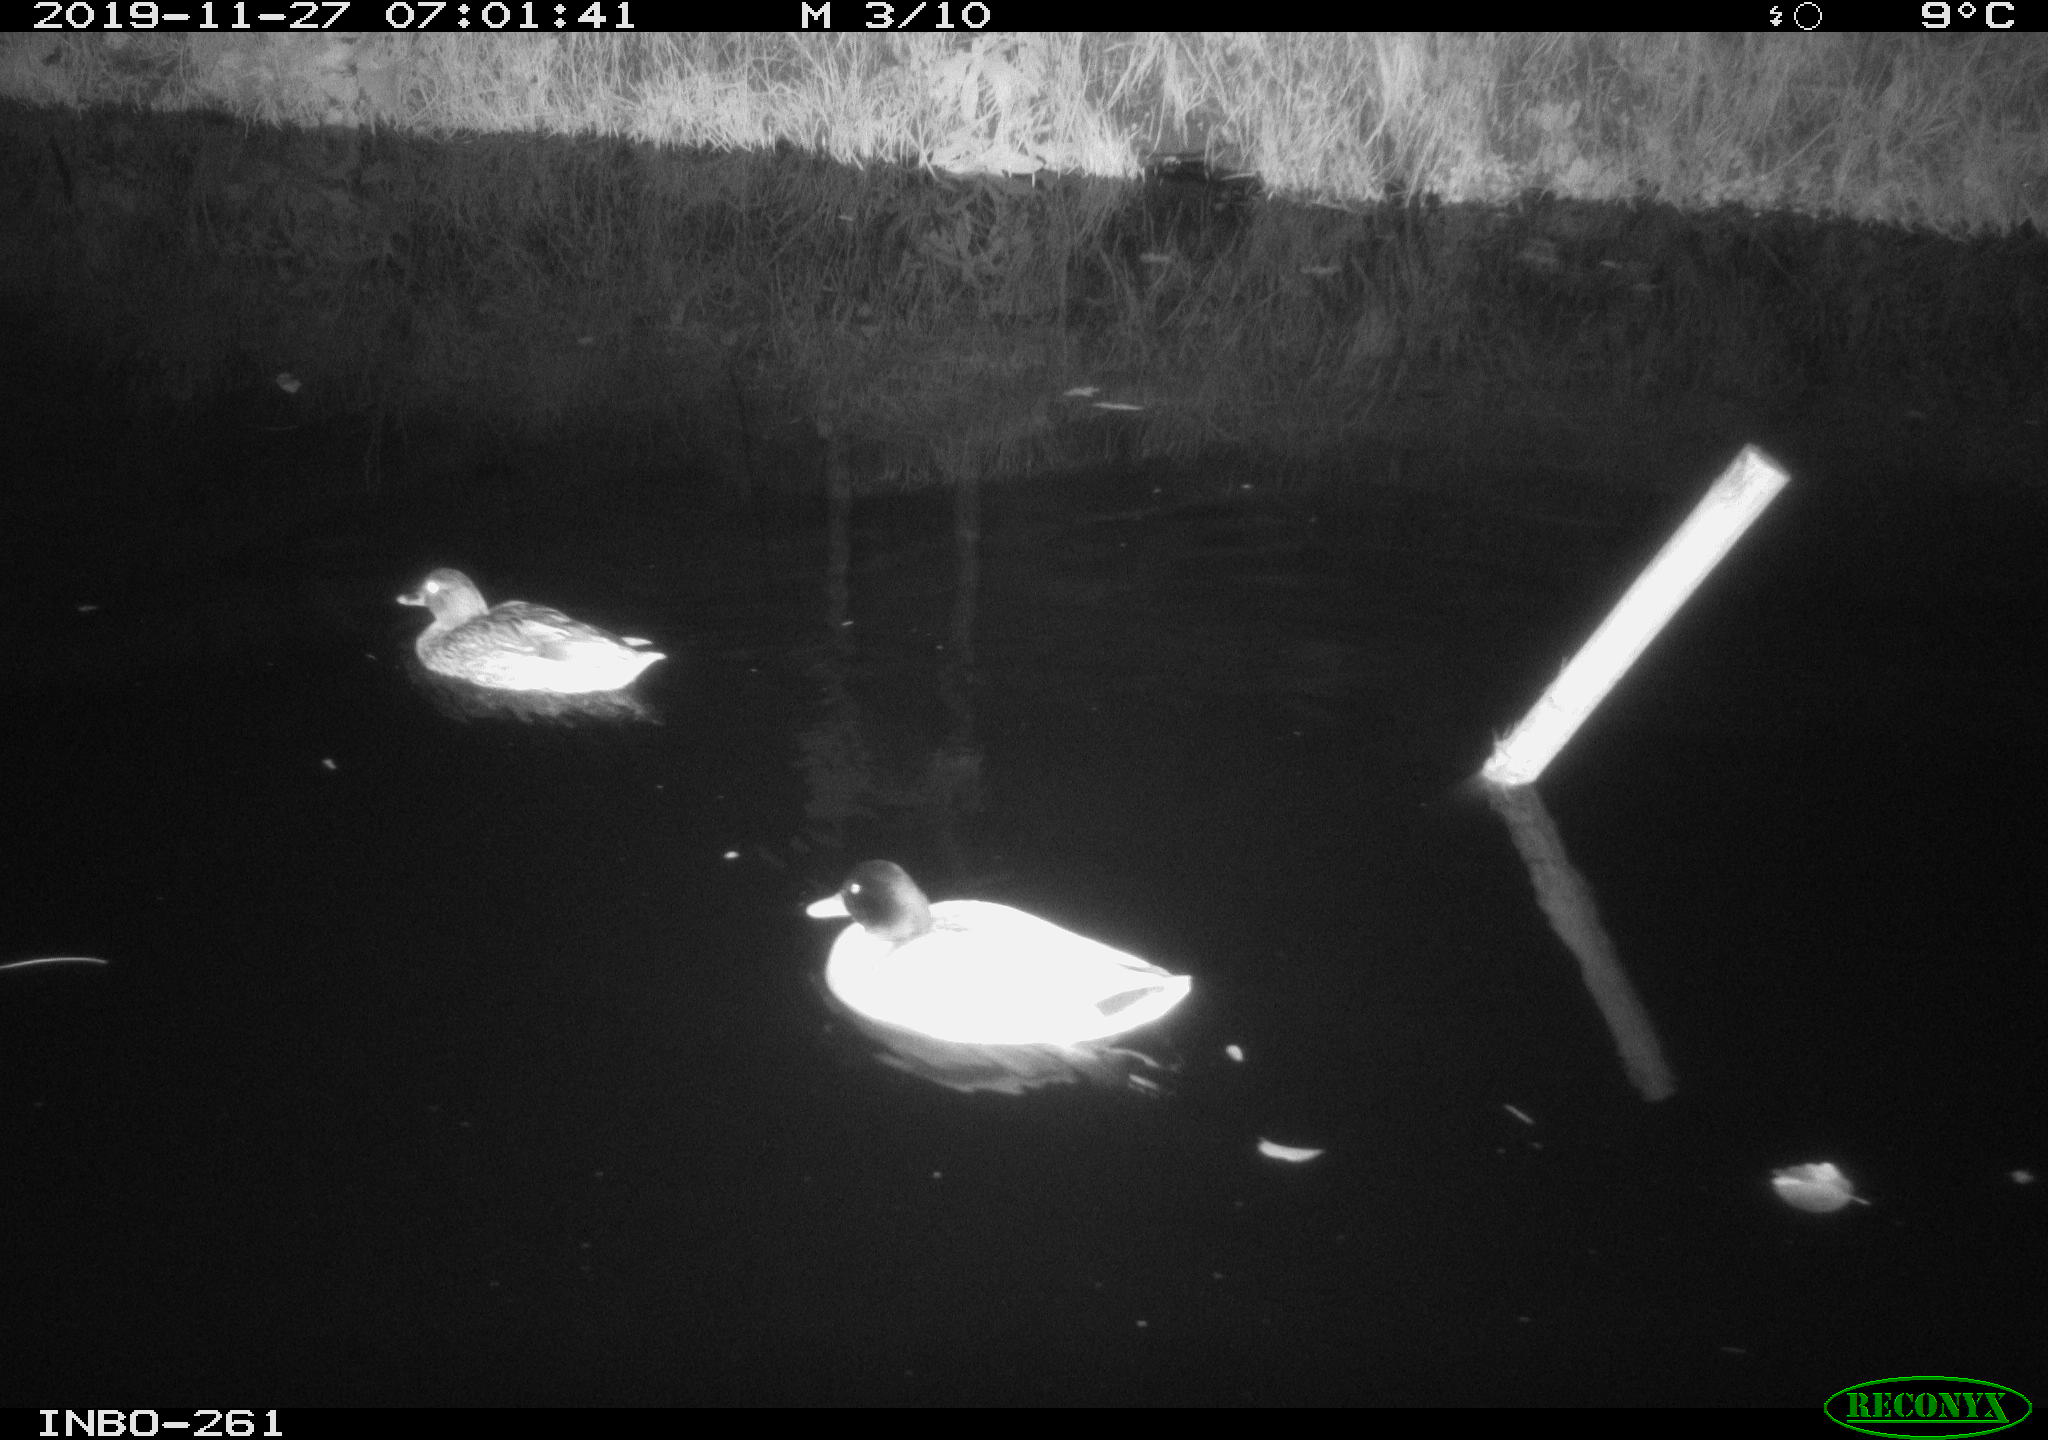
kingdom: Animalia
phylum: Chordata
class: Aves
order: Anseriformes
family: Anatidae
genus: Anas
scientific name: Anas platyrhynchos
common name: Mallard
